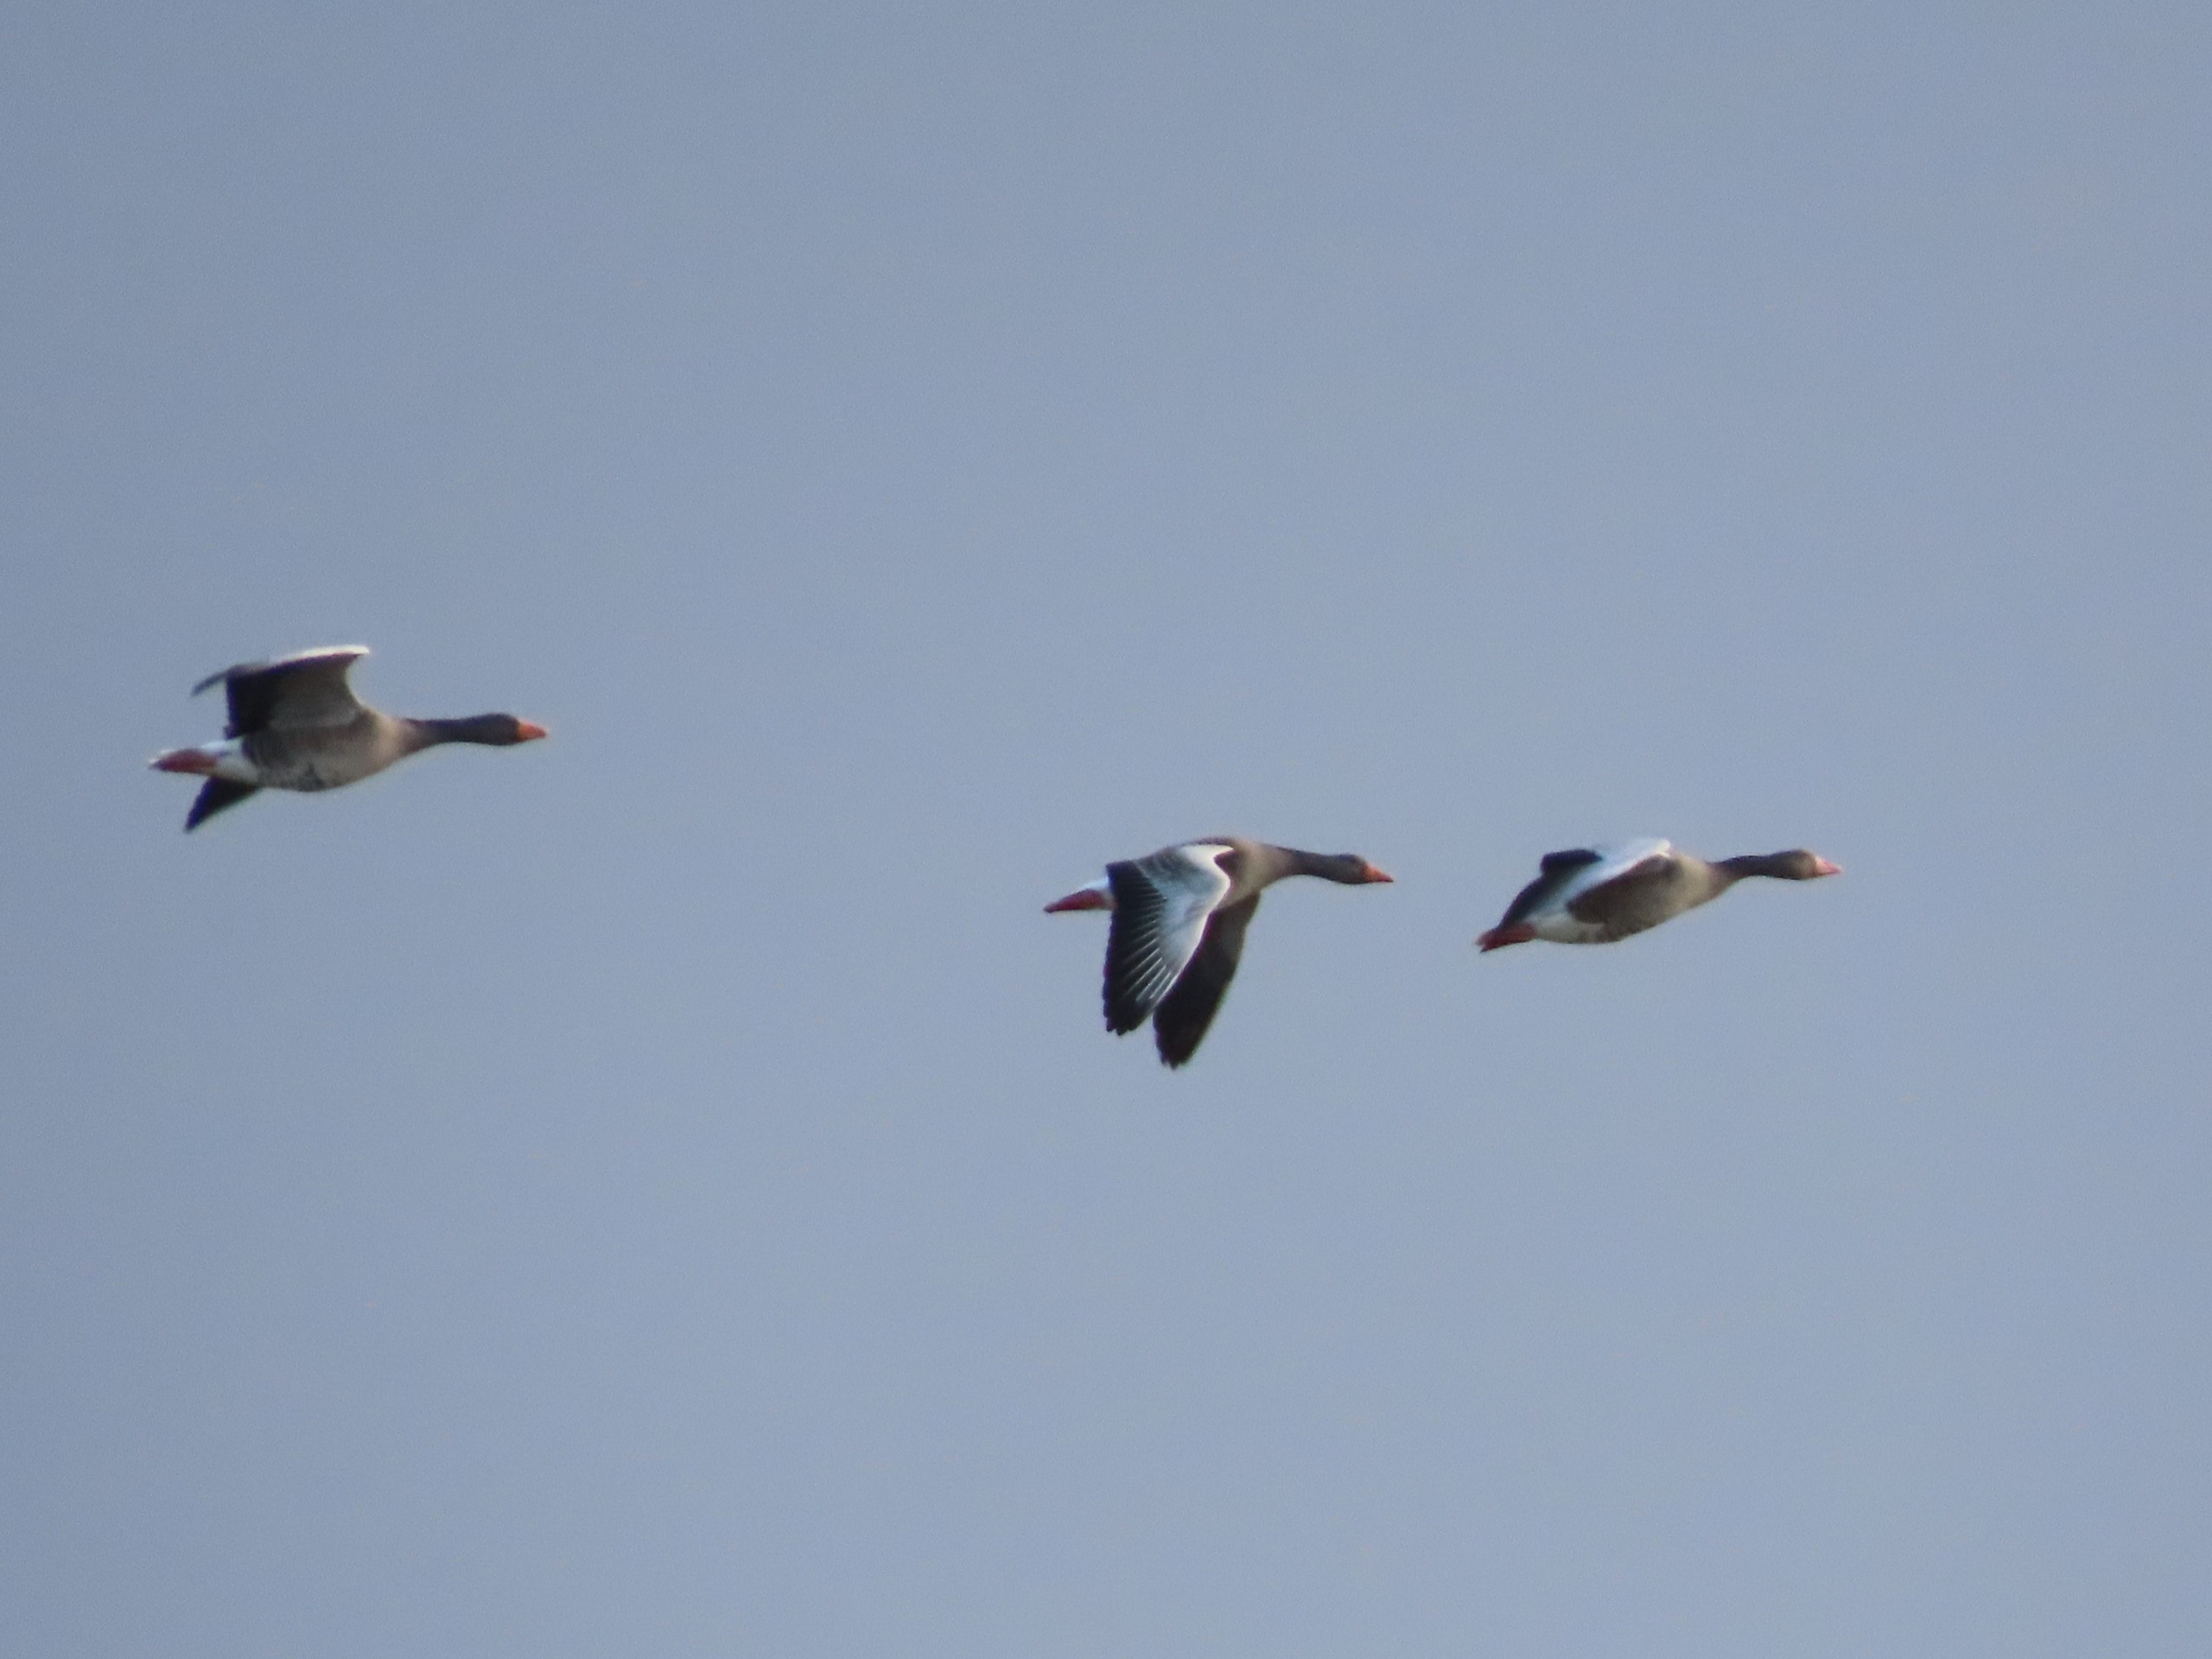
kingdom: Animalia
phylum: Chordata
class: Aves
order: Anseriformes
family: Anatidae
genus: Anser
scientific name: Anser anser
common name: Grågås
